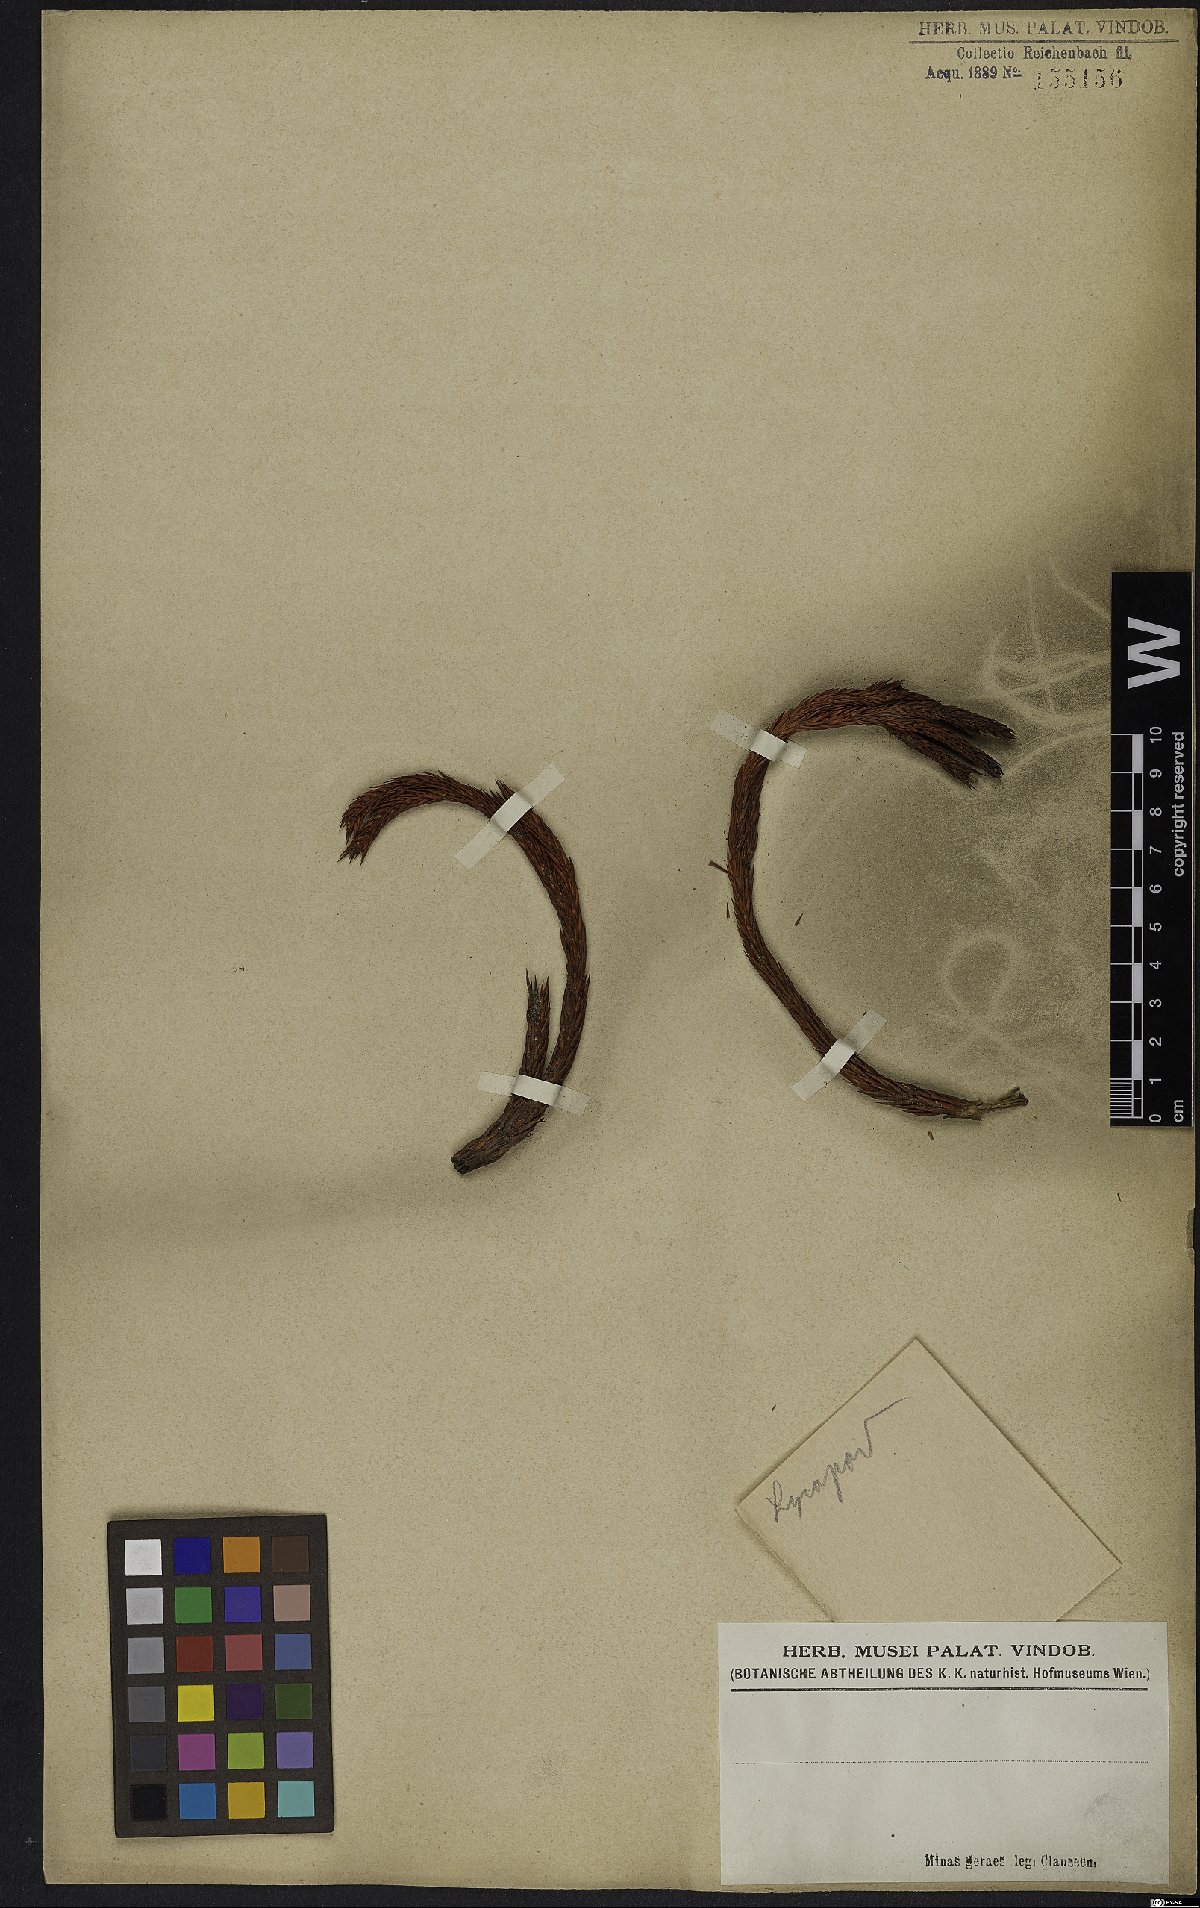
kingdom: Plantae
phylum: Tracheophyta
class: Lycopodiopsida
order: Lycopodiales
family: Lycopodiaceae
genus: Lycopodium
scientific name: Lycopodium
